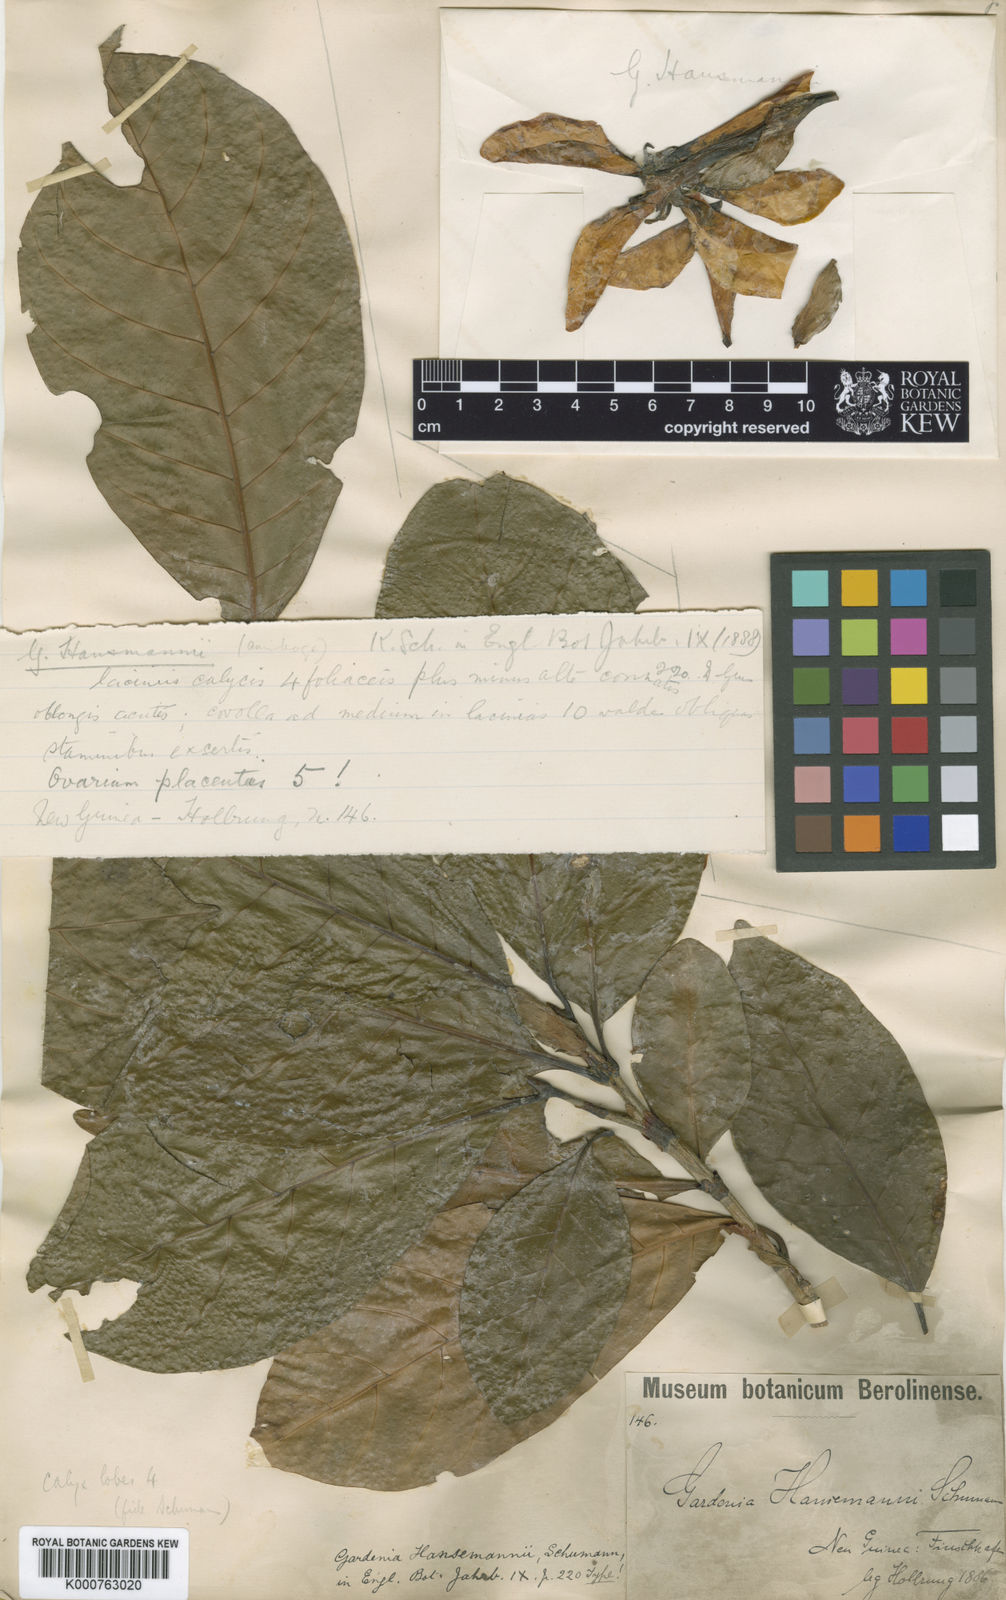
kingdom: Plantae
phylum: Tracheophyta
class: Magnoliopsida
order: Gentianales
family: Rubiaceae
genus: Gardenia
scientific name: Gardenia hansemannii
